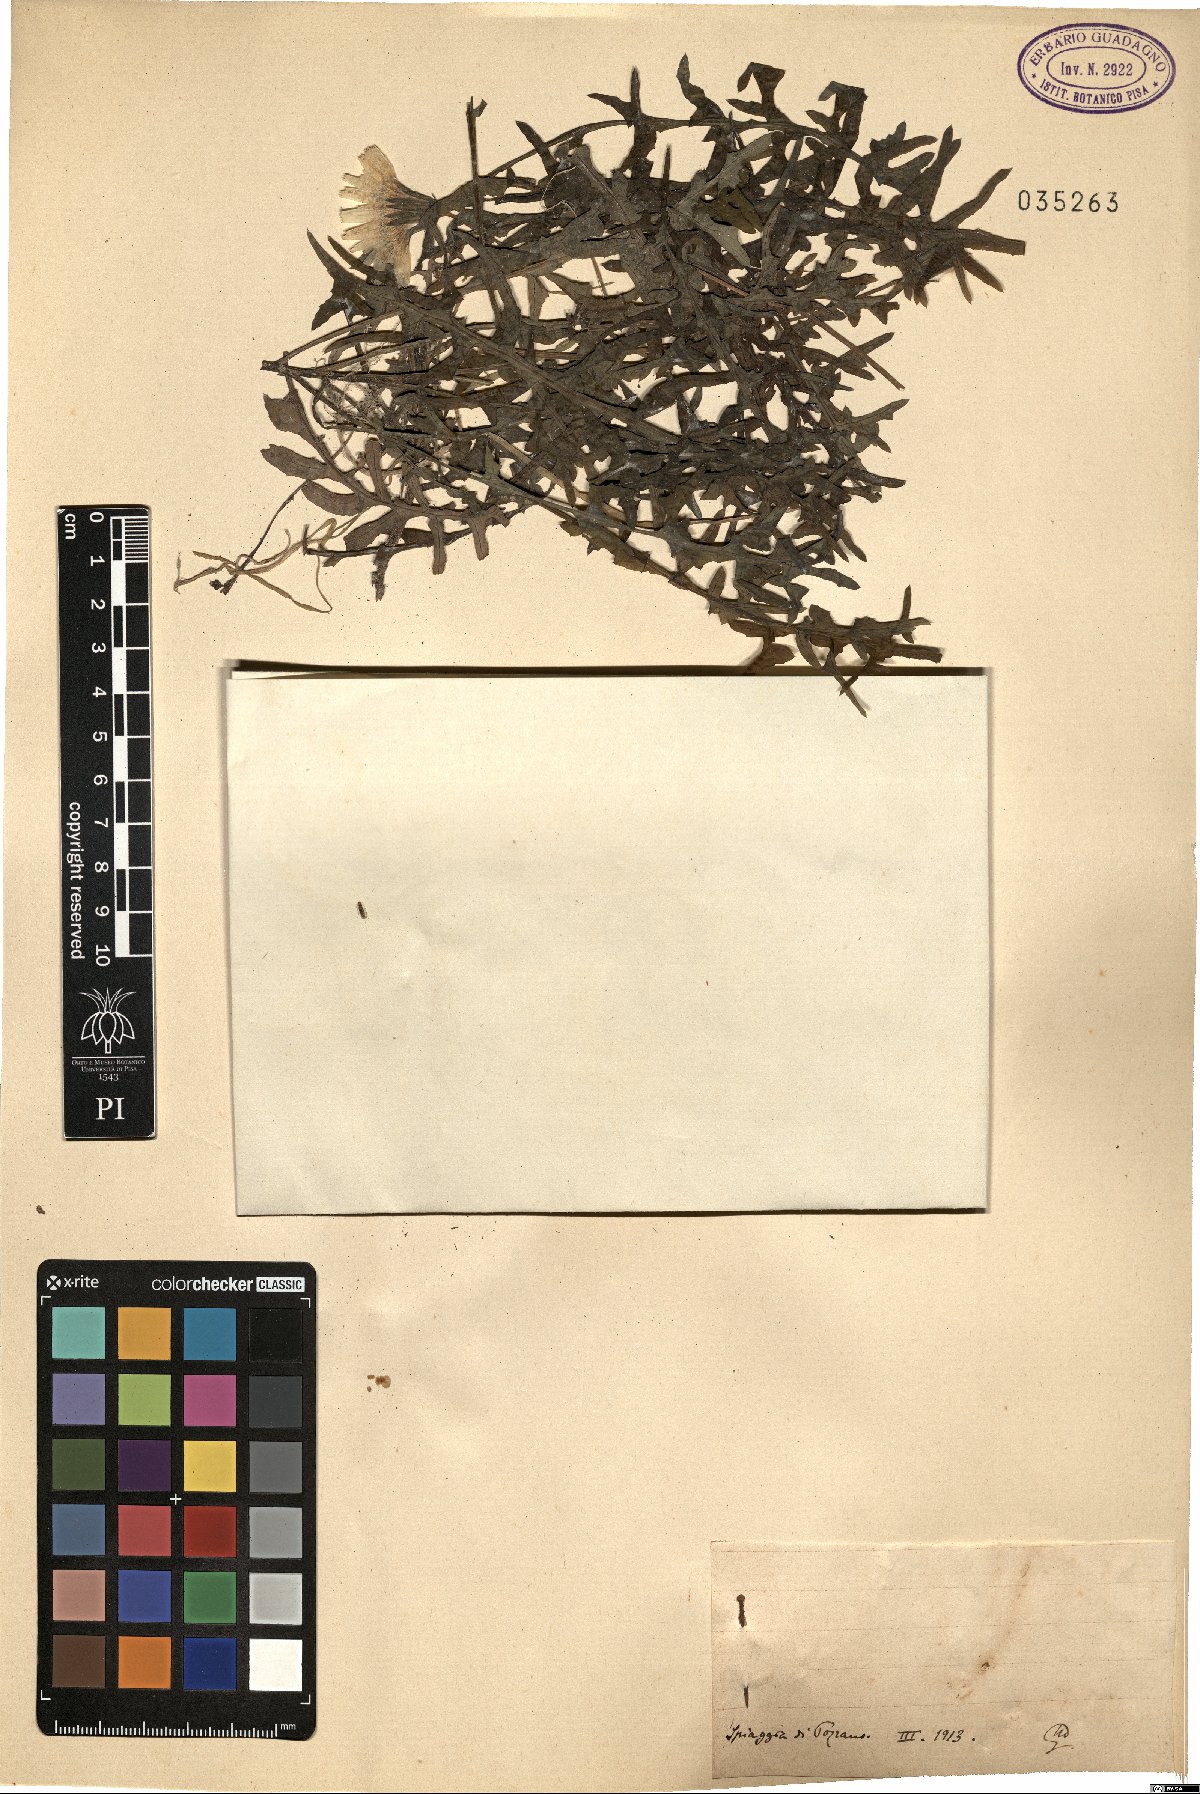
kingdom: Plantae
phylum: Tracheophyta
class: Magnoliopsida
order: Asterales
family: Asteraceae
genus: Sonchus
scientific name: Sonchus
